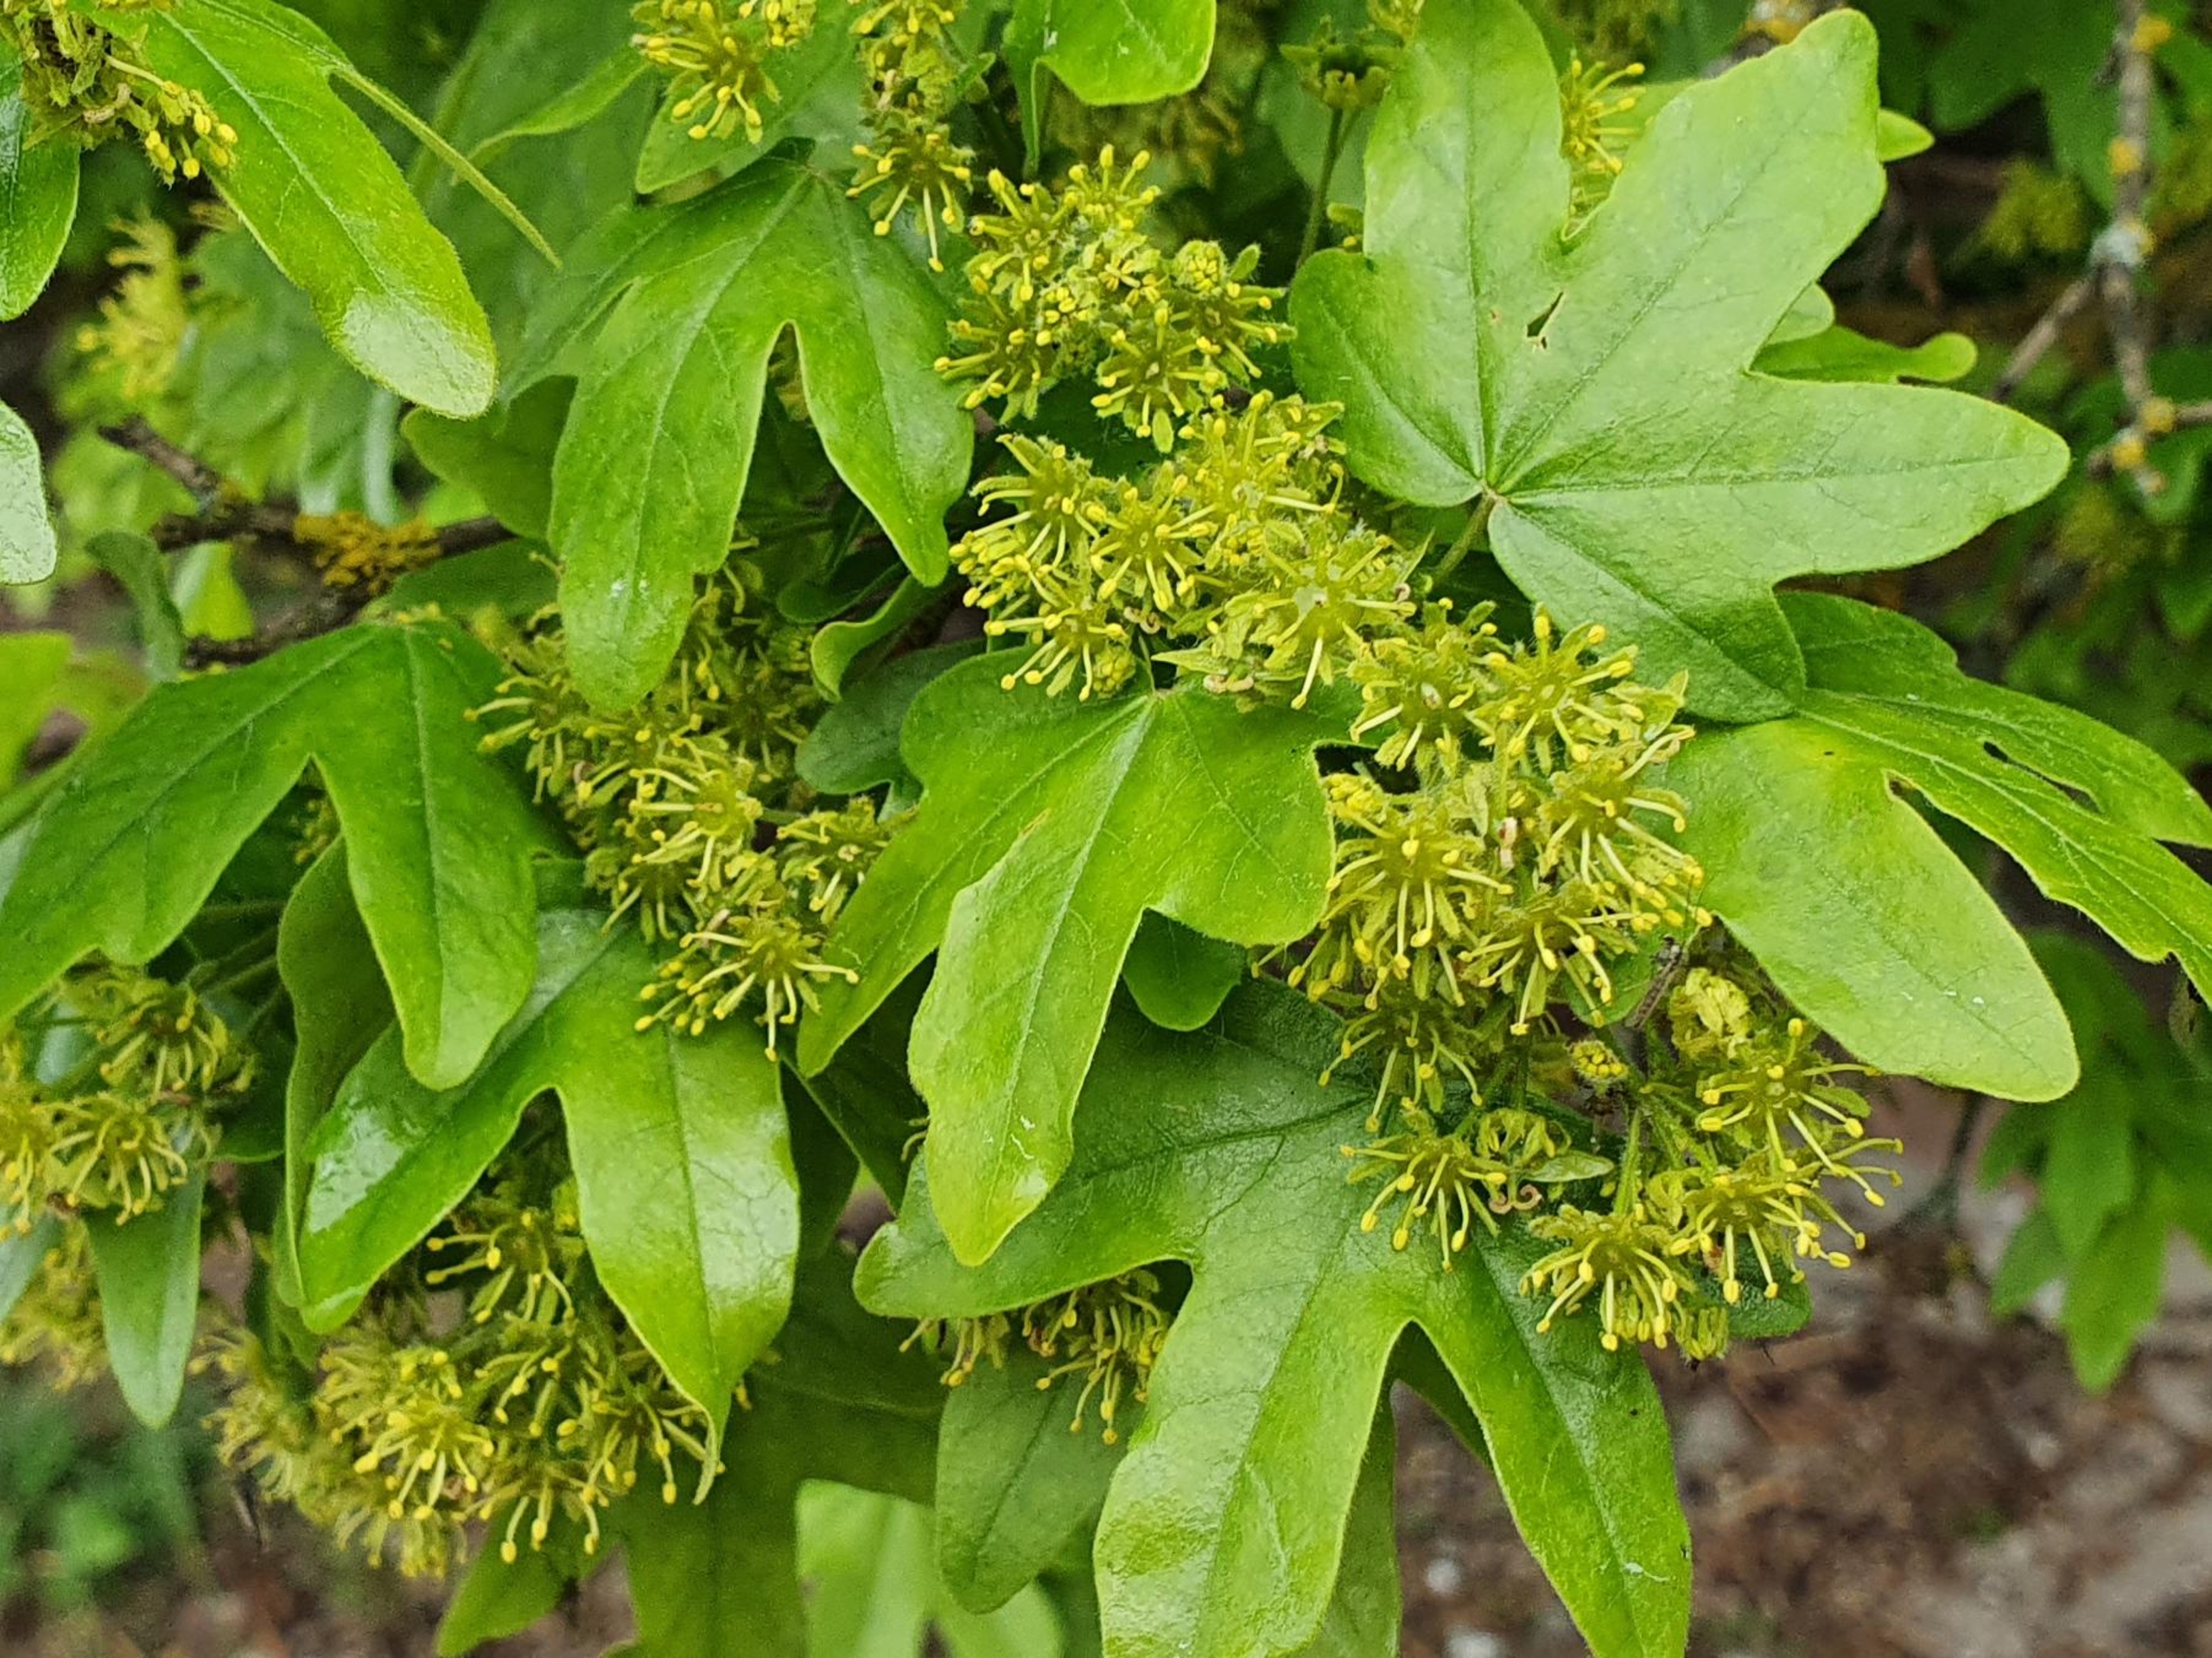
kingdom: Plantae
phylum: Tracheophyta
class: Magnoliopsida
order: Sapindales
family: Sapindaceae
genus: Acer
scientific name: Acer campestre
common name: Navr
